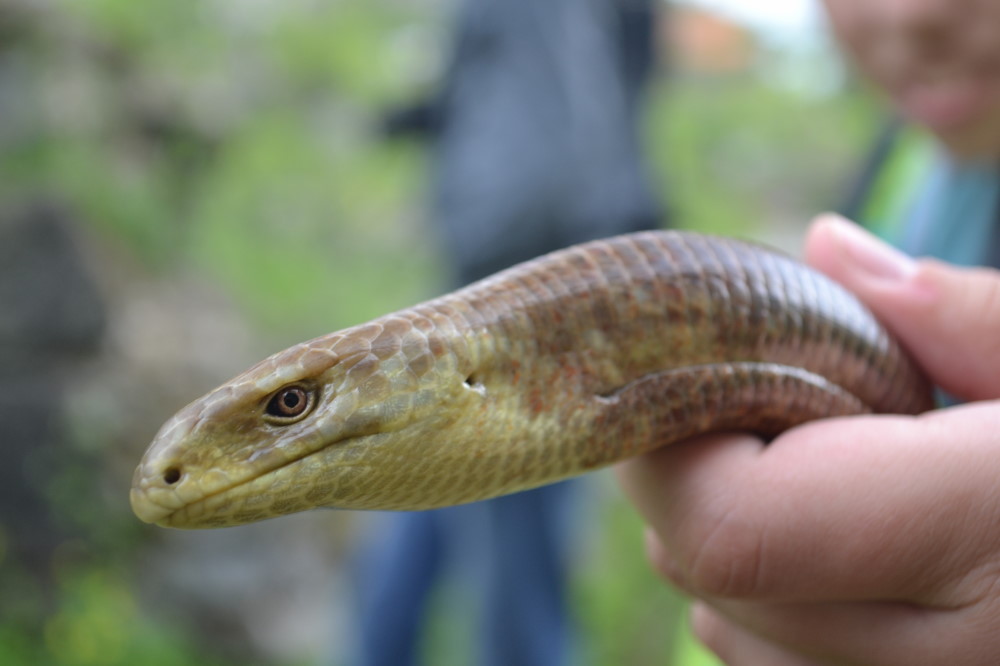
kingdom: Animalia
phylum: Chordata
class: Squamata
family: Anguidae
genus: Pseudopus
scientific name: Pseudopus apodus
